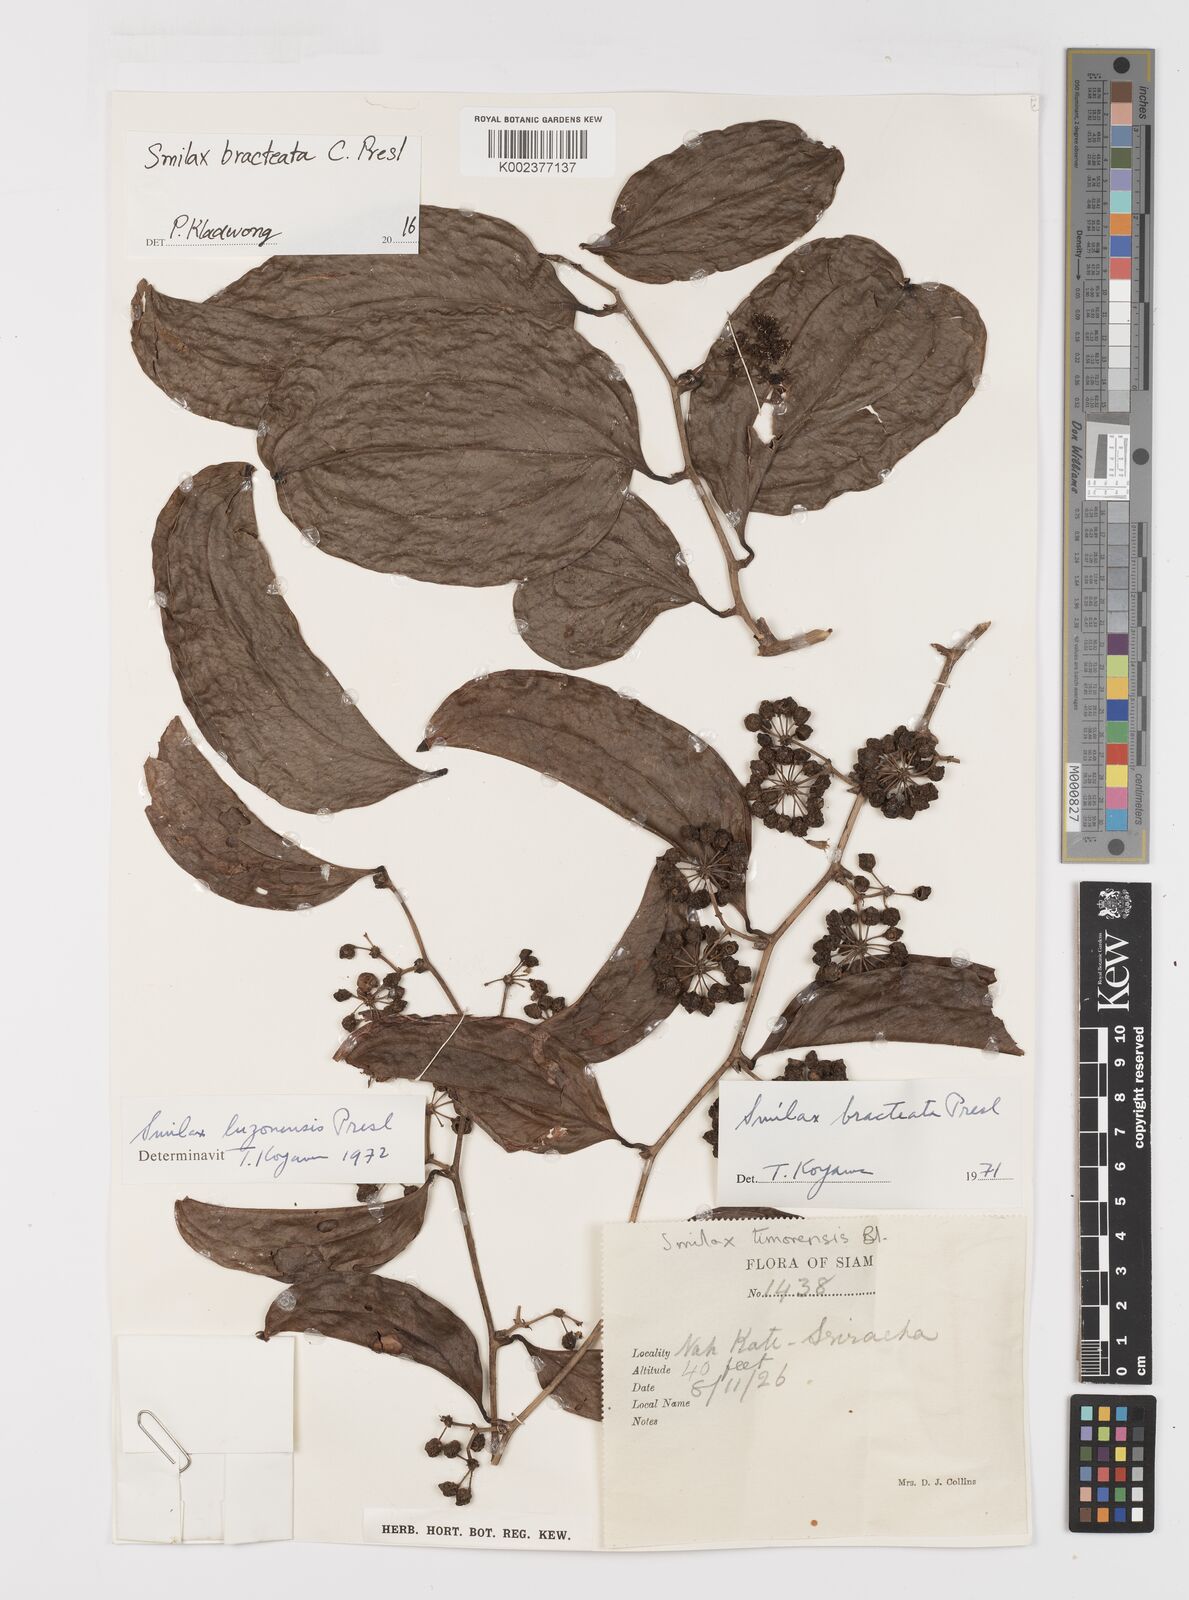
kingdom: Plantae
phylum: Tracheophyta
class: Liliopsida
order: Liliales
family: Smilacaceae
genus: Smilax
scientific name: Smilax bracteata
